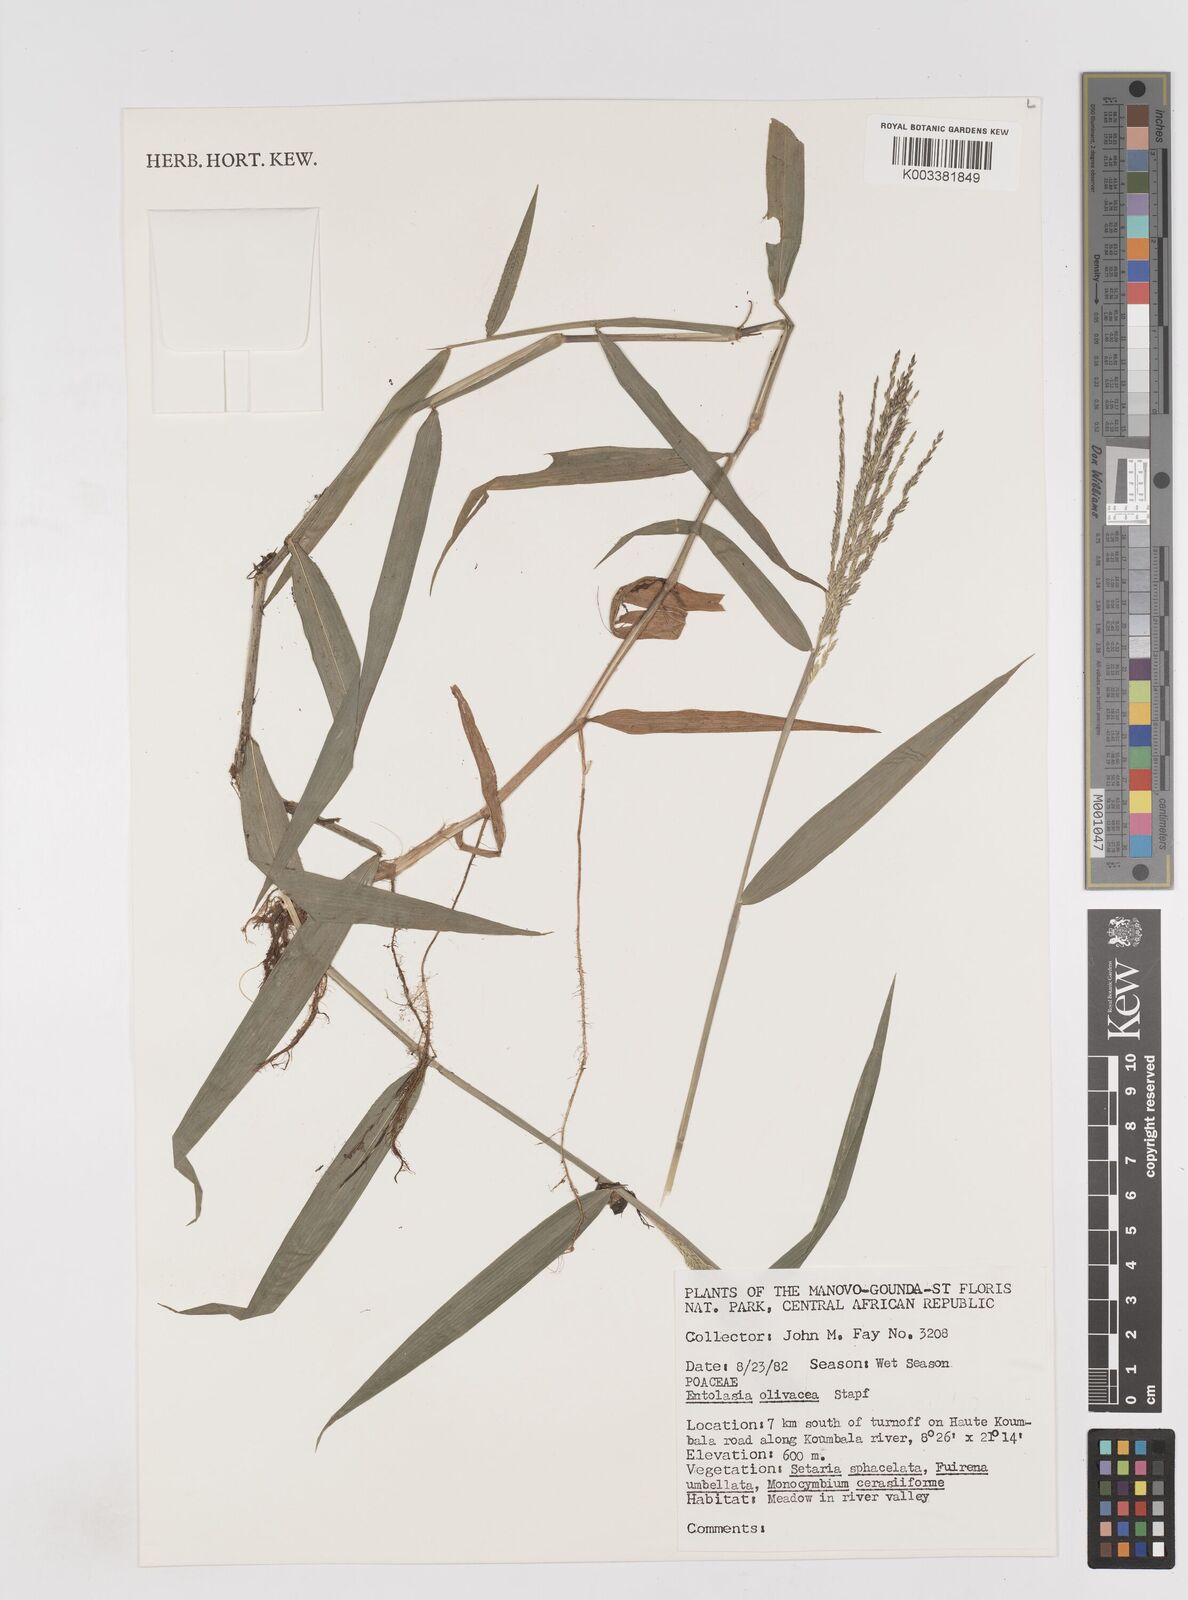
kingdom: Plantae
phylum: Tracheophyta
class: Liliopsida
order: Poales
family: Poaceae
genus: Entolasia
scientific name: Entolasia olivacea
